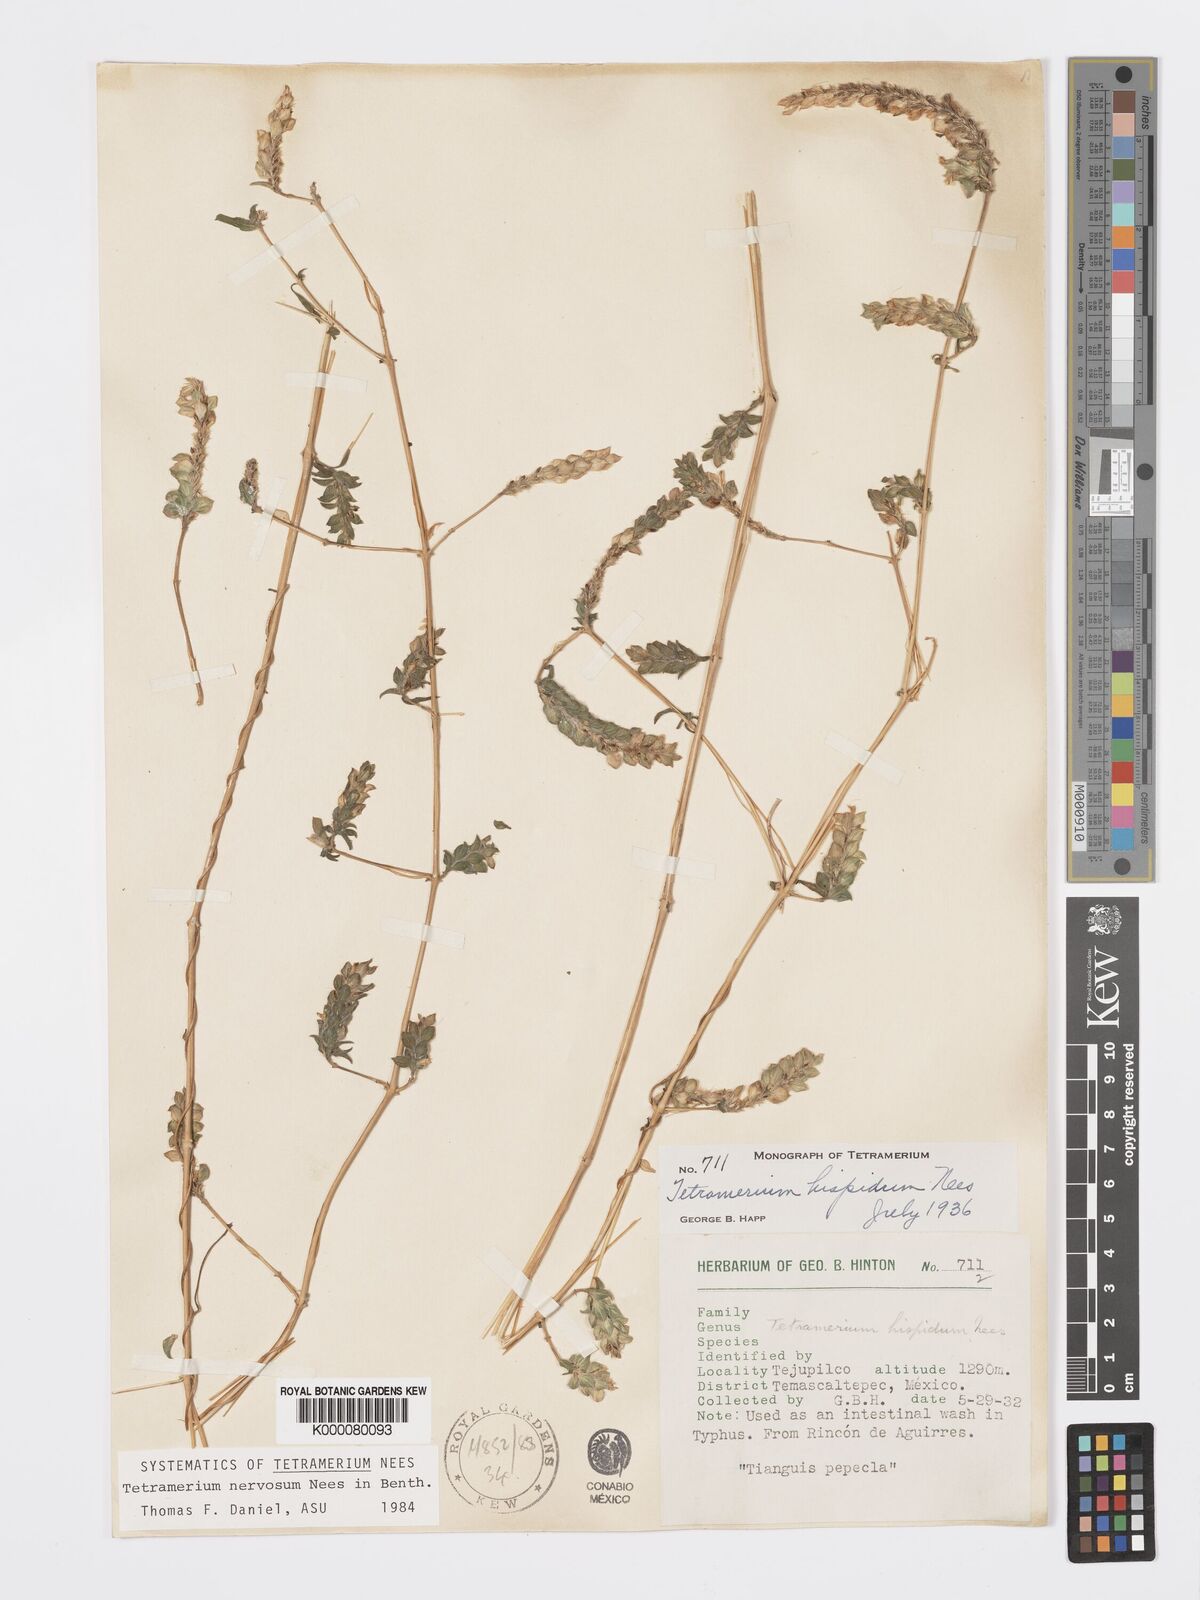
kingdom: Plantae
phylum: Tracheophyta
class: Magnoliopsida
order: Lamiales
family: Acanthaceae
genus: Tetramerium
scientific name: Tetramerium nervosum
